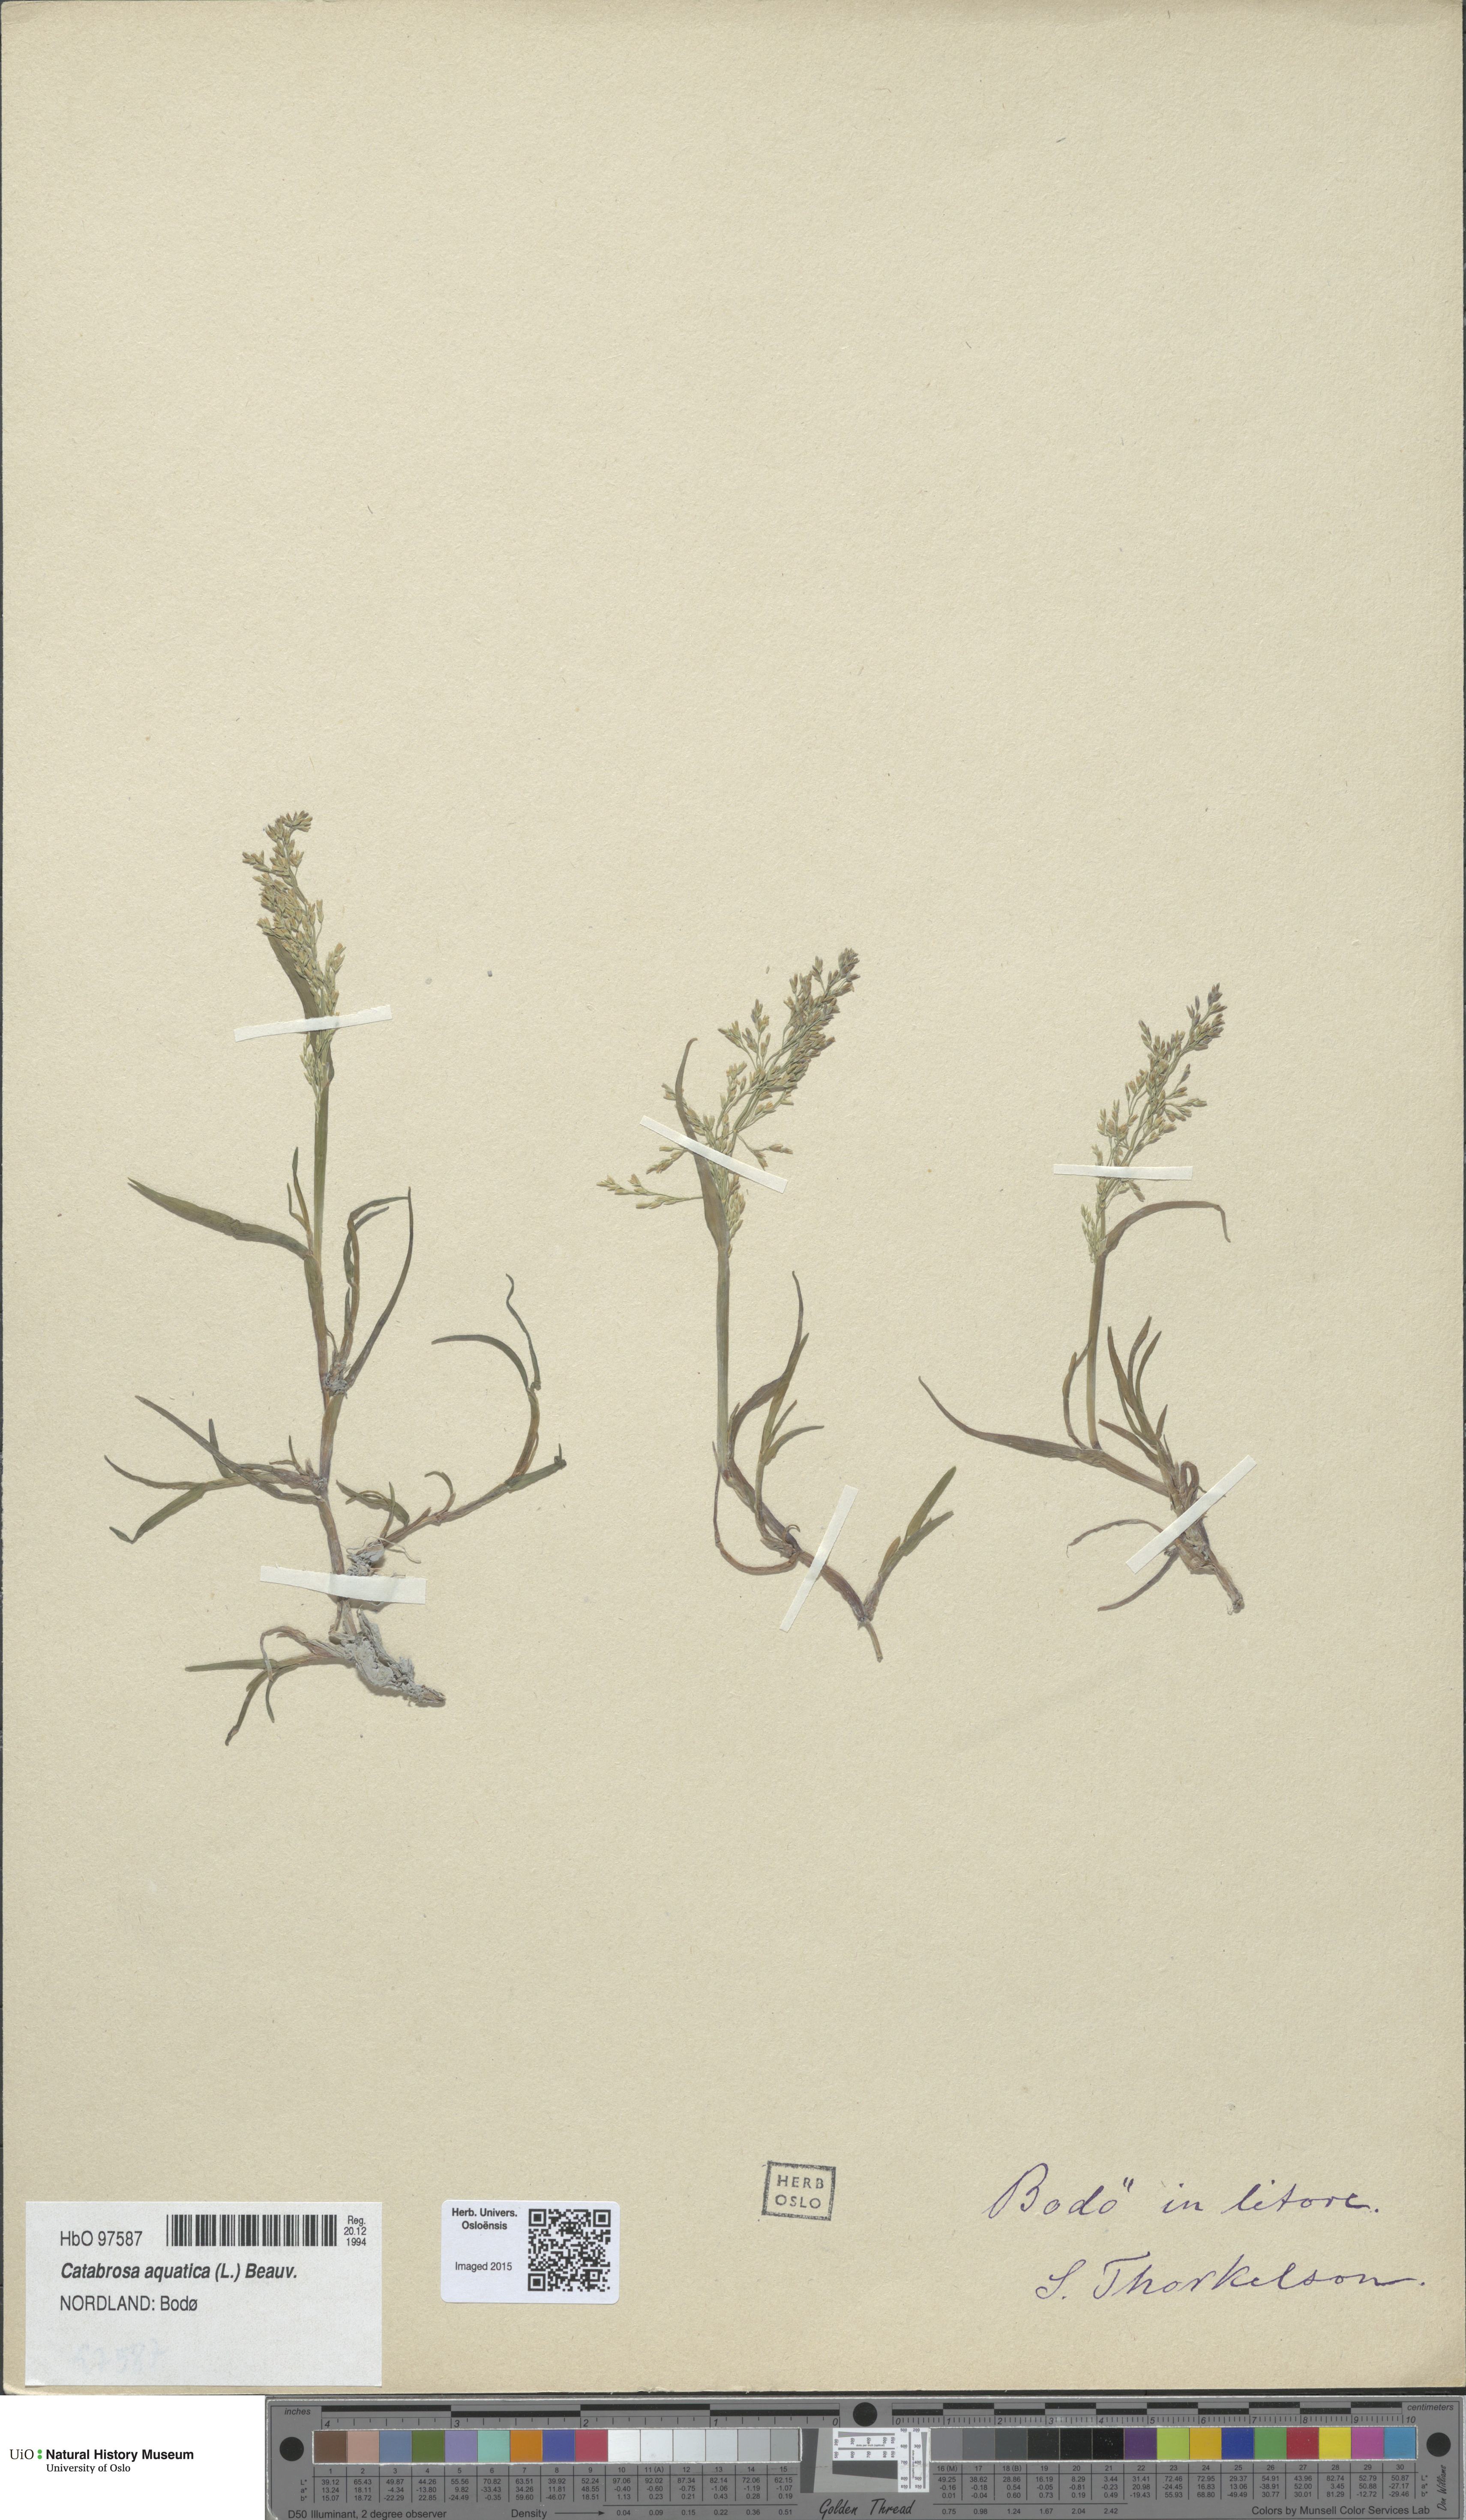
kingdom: Plantae
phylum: Tracheophyta
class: Liliopsida
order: Poales
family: Poaceae
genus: Catabrosa
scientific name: Catabrosa aquatica
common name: Whorl-grass
